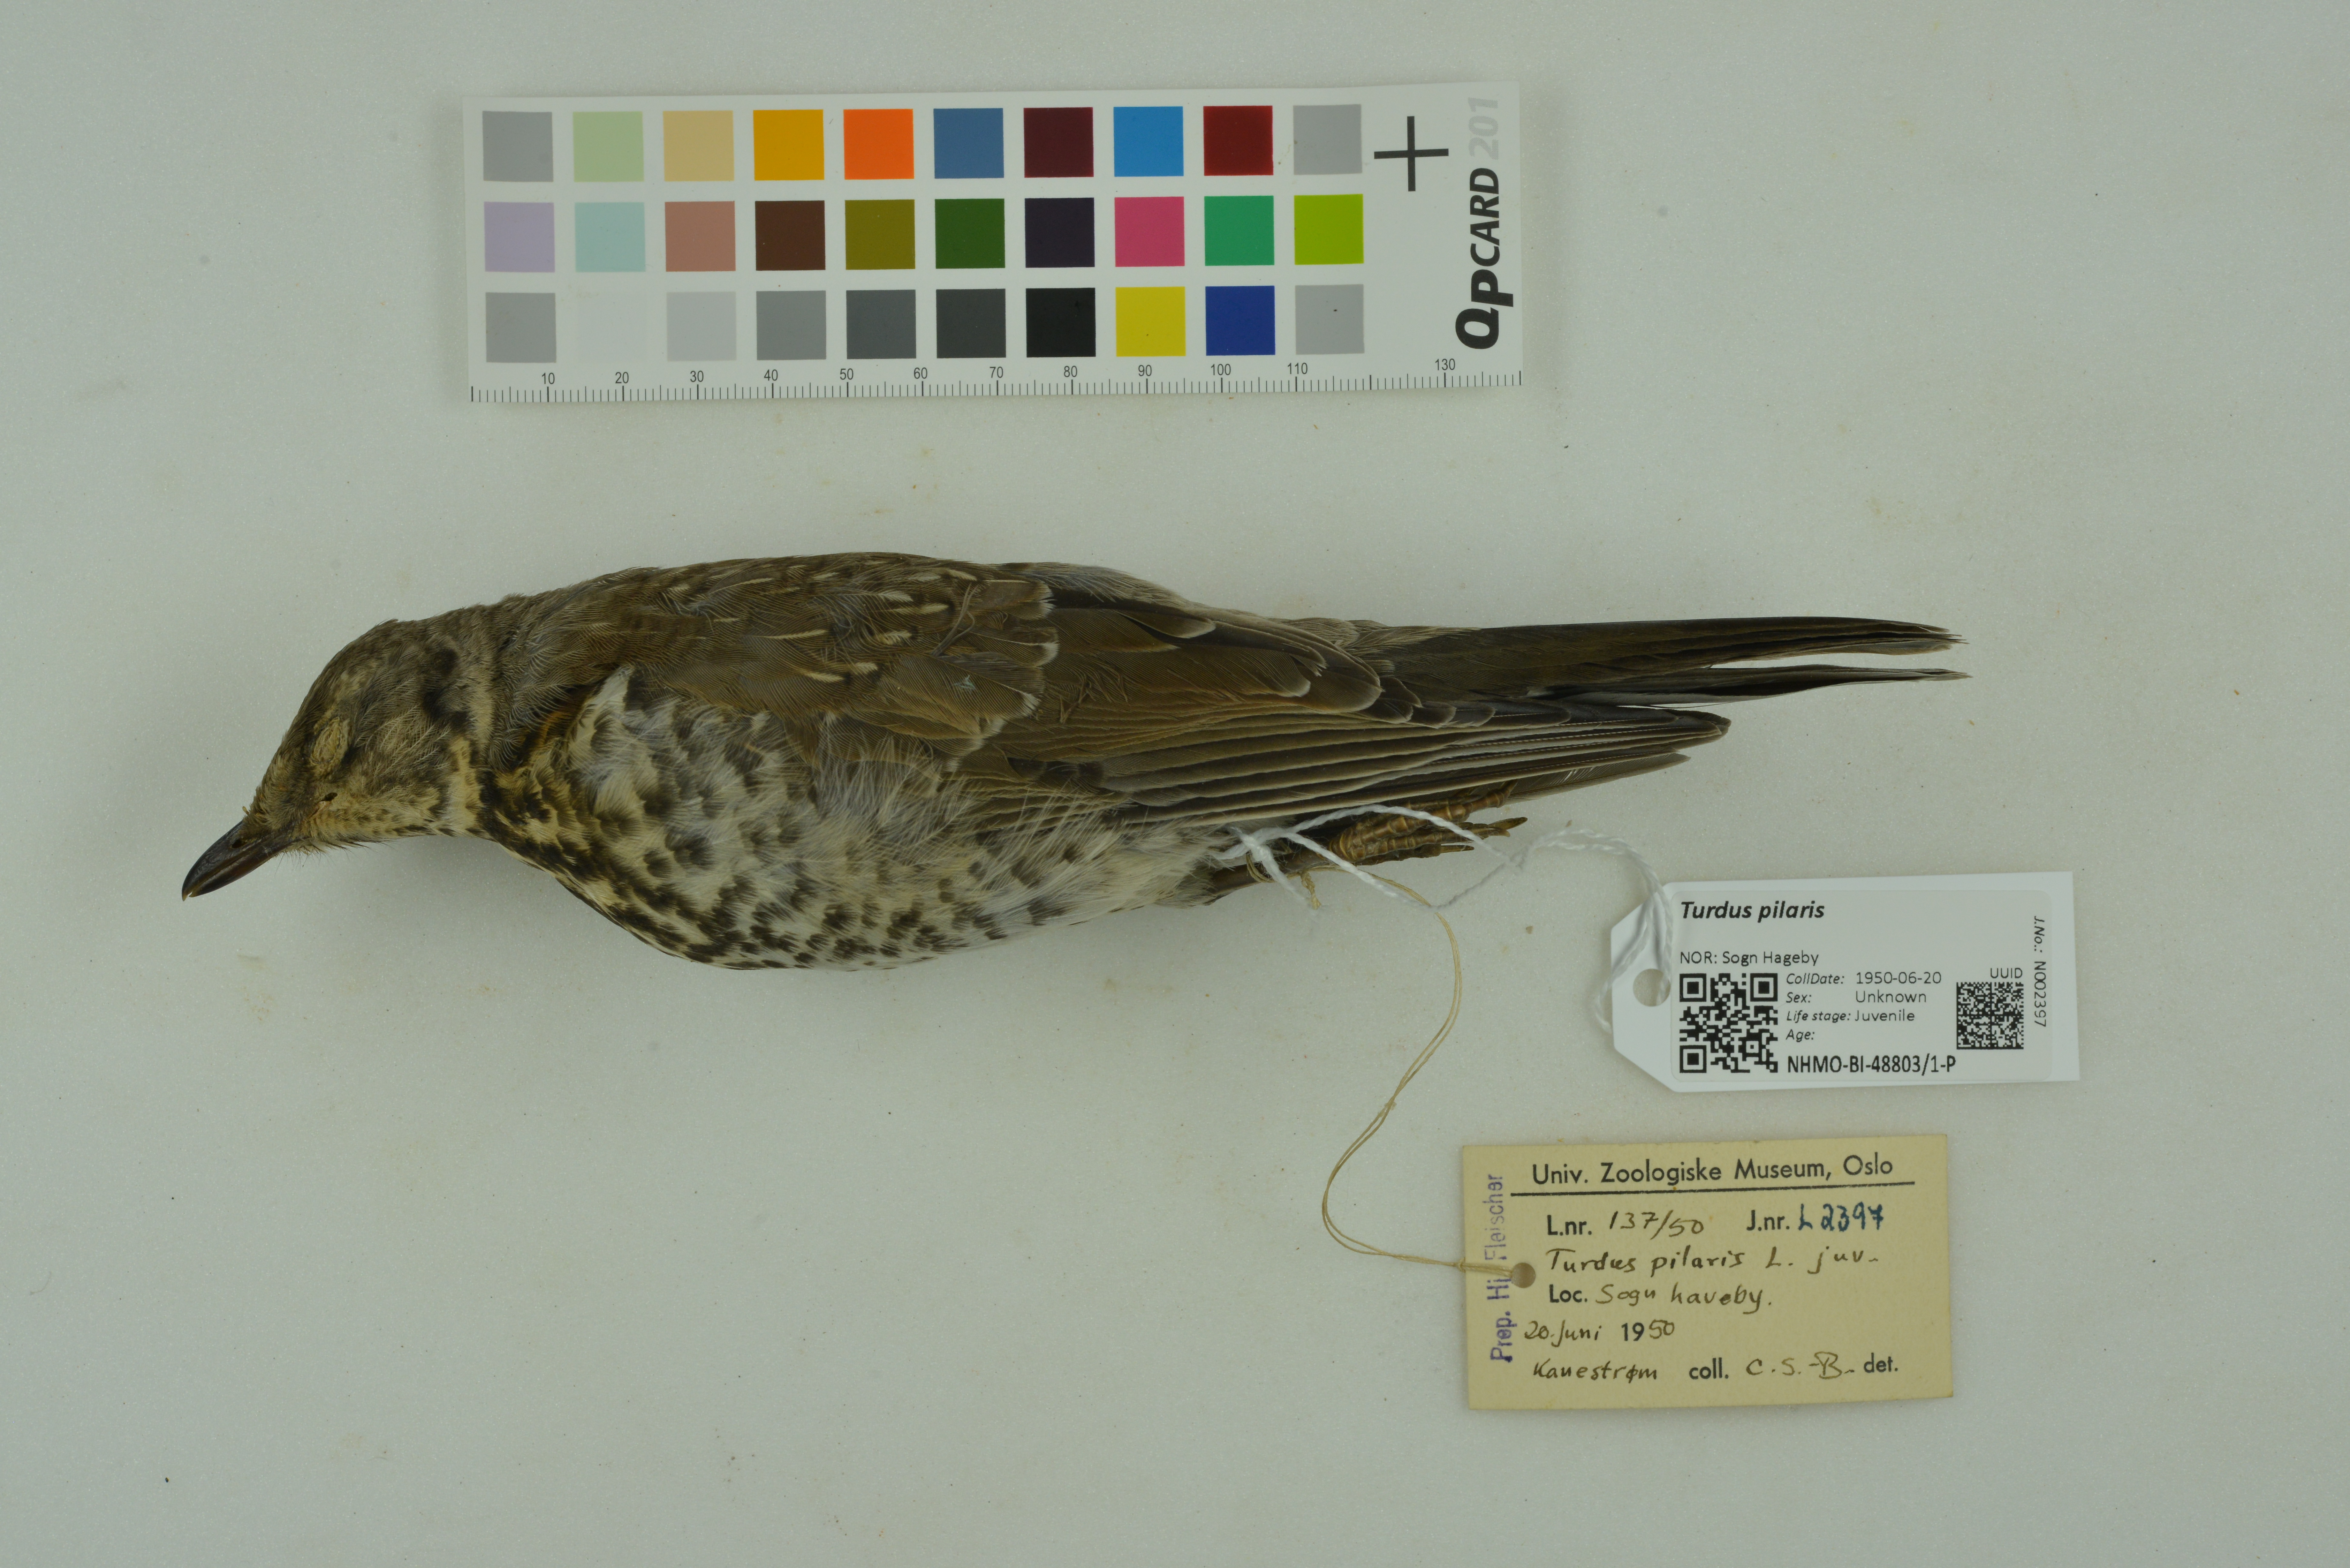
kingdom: Animalia
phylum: Chordata
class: Aves
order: Passeriformes
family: Turdidae
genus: Turdus
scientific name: Turdus pilaris
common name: Fieldfare
